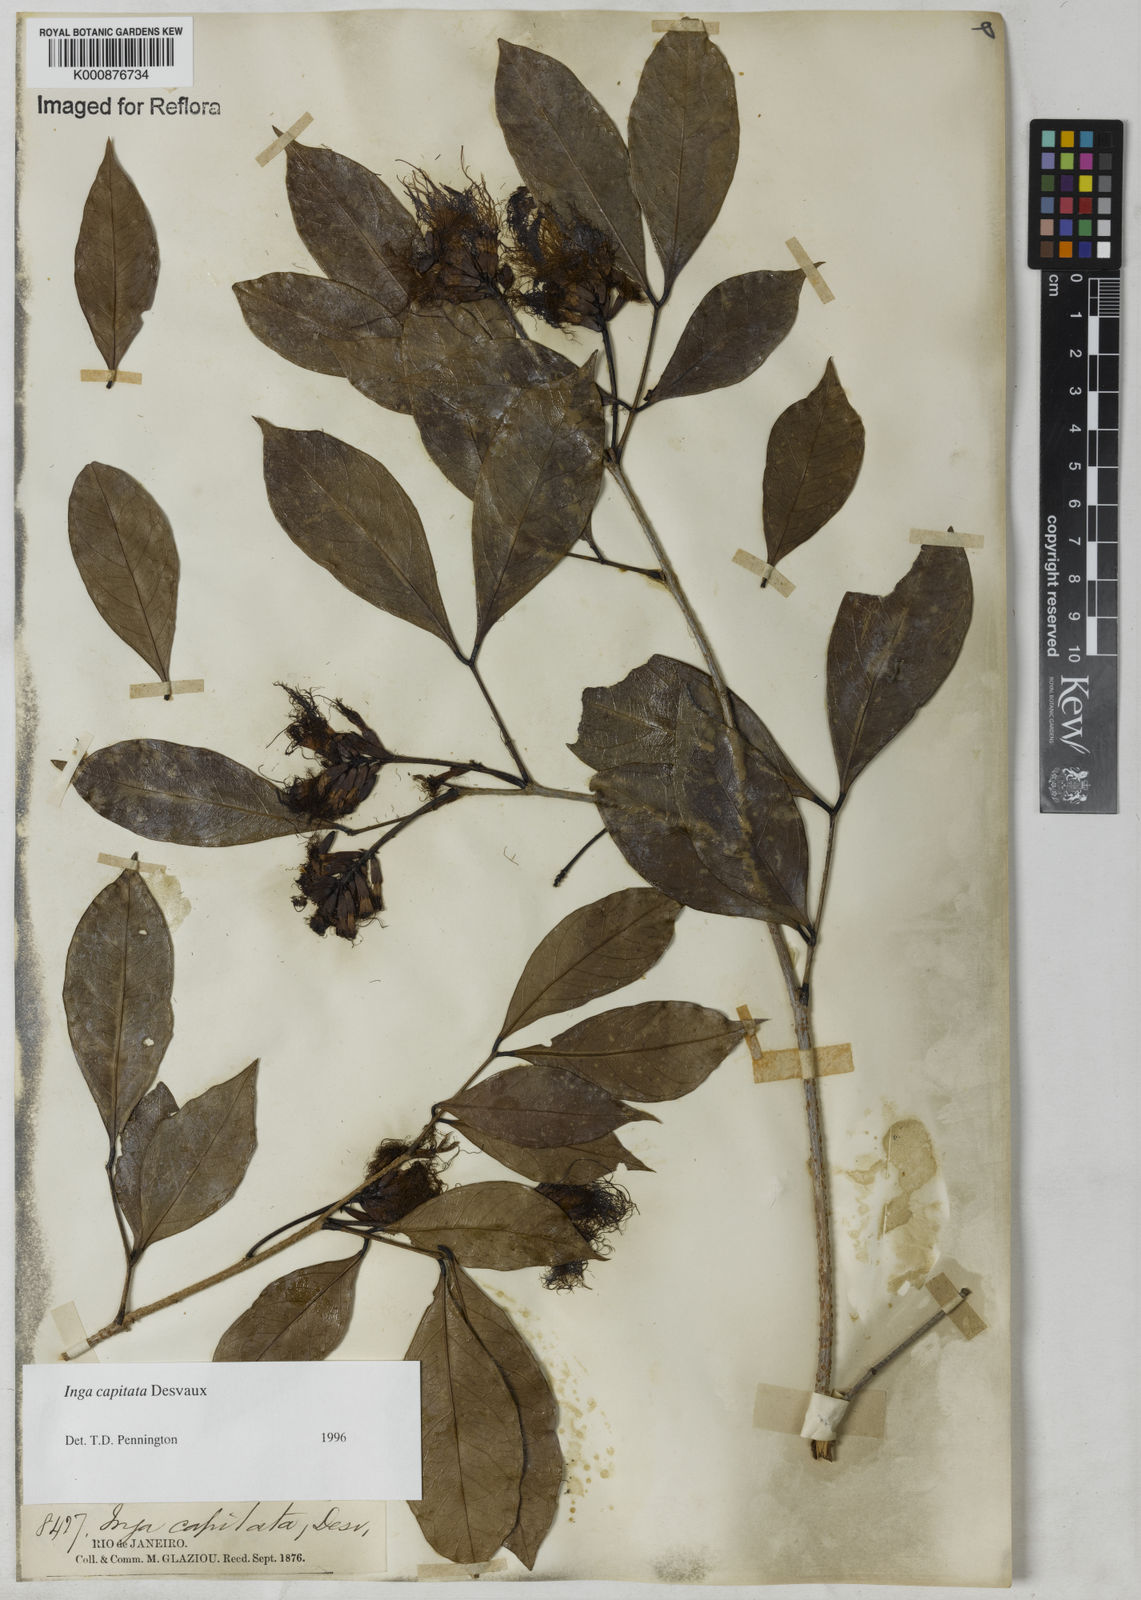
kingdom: Plantae
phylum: Tracheophyta
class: Magnoliopsida
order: Fabales
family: Fabaceae
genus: Inga
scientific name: Inga capitata
